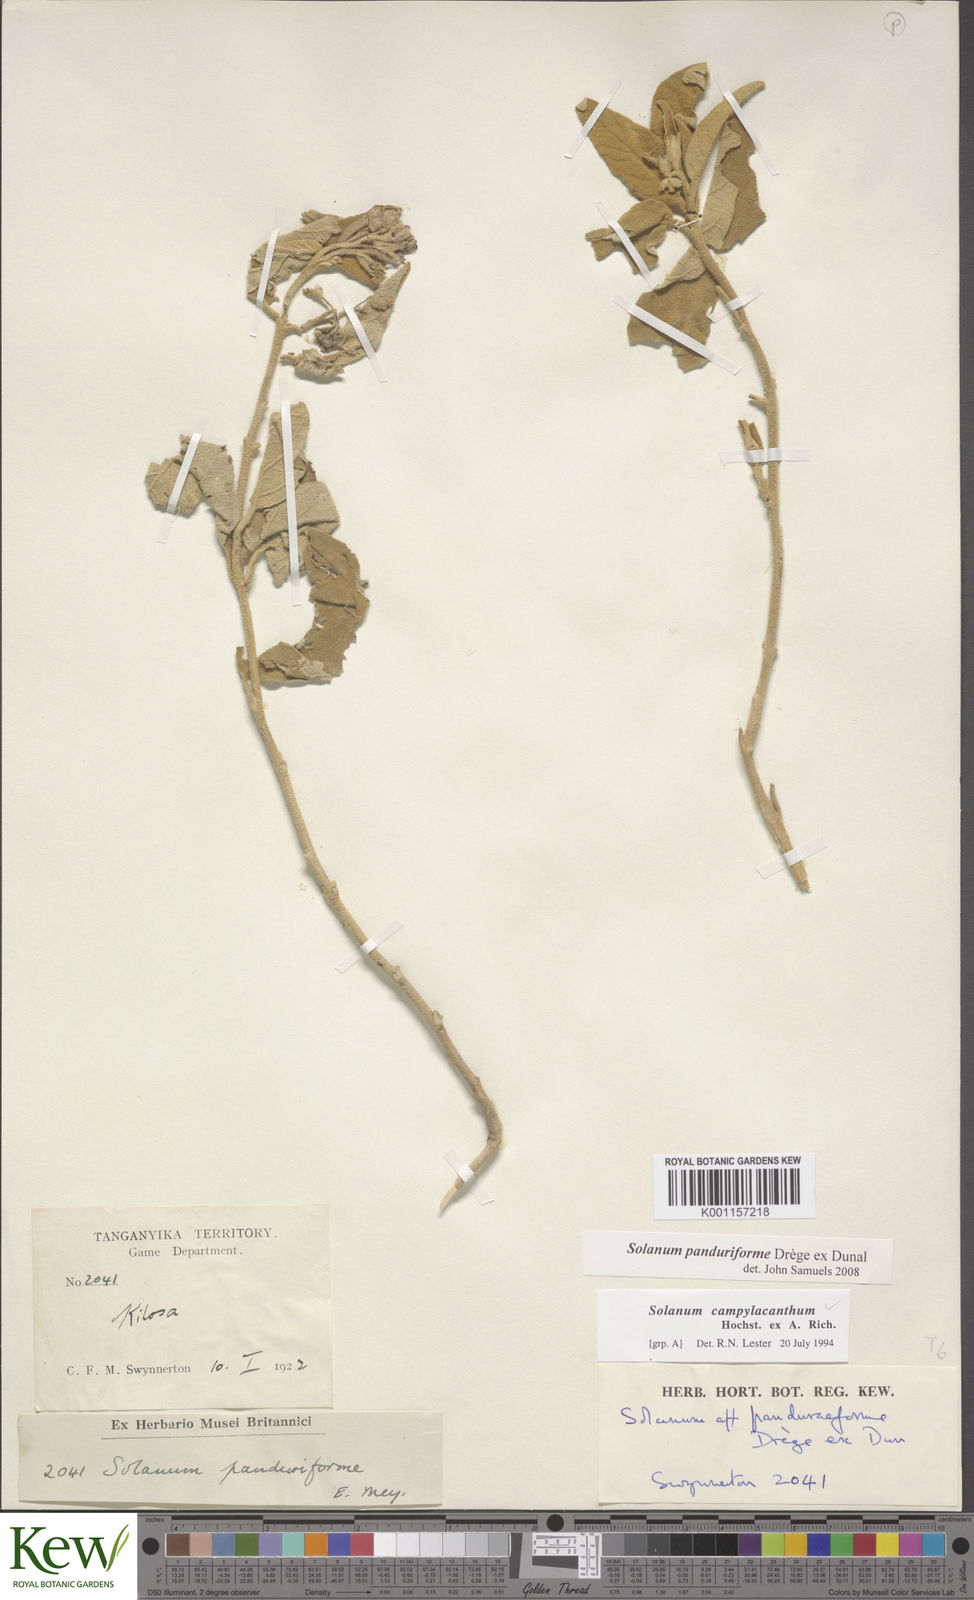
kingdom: Plantae
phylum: Tracheophyta
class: Magnoliopsida
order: Solanales
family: Solanaceae
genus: Solanum
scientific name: Solanum campylacanthum
